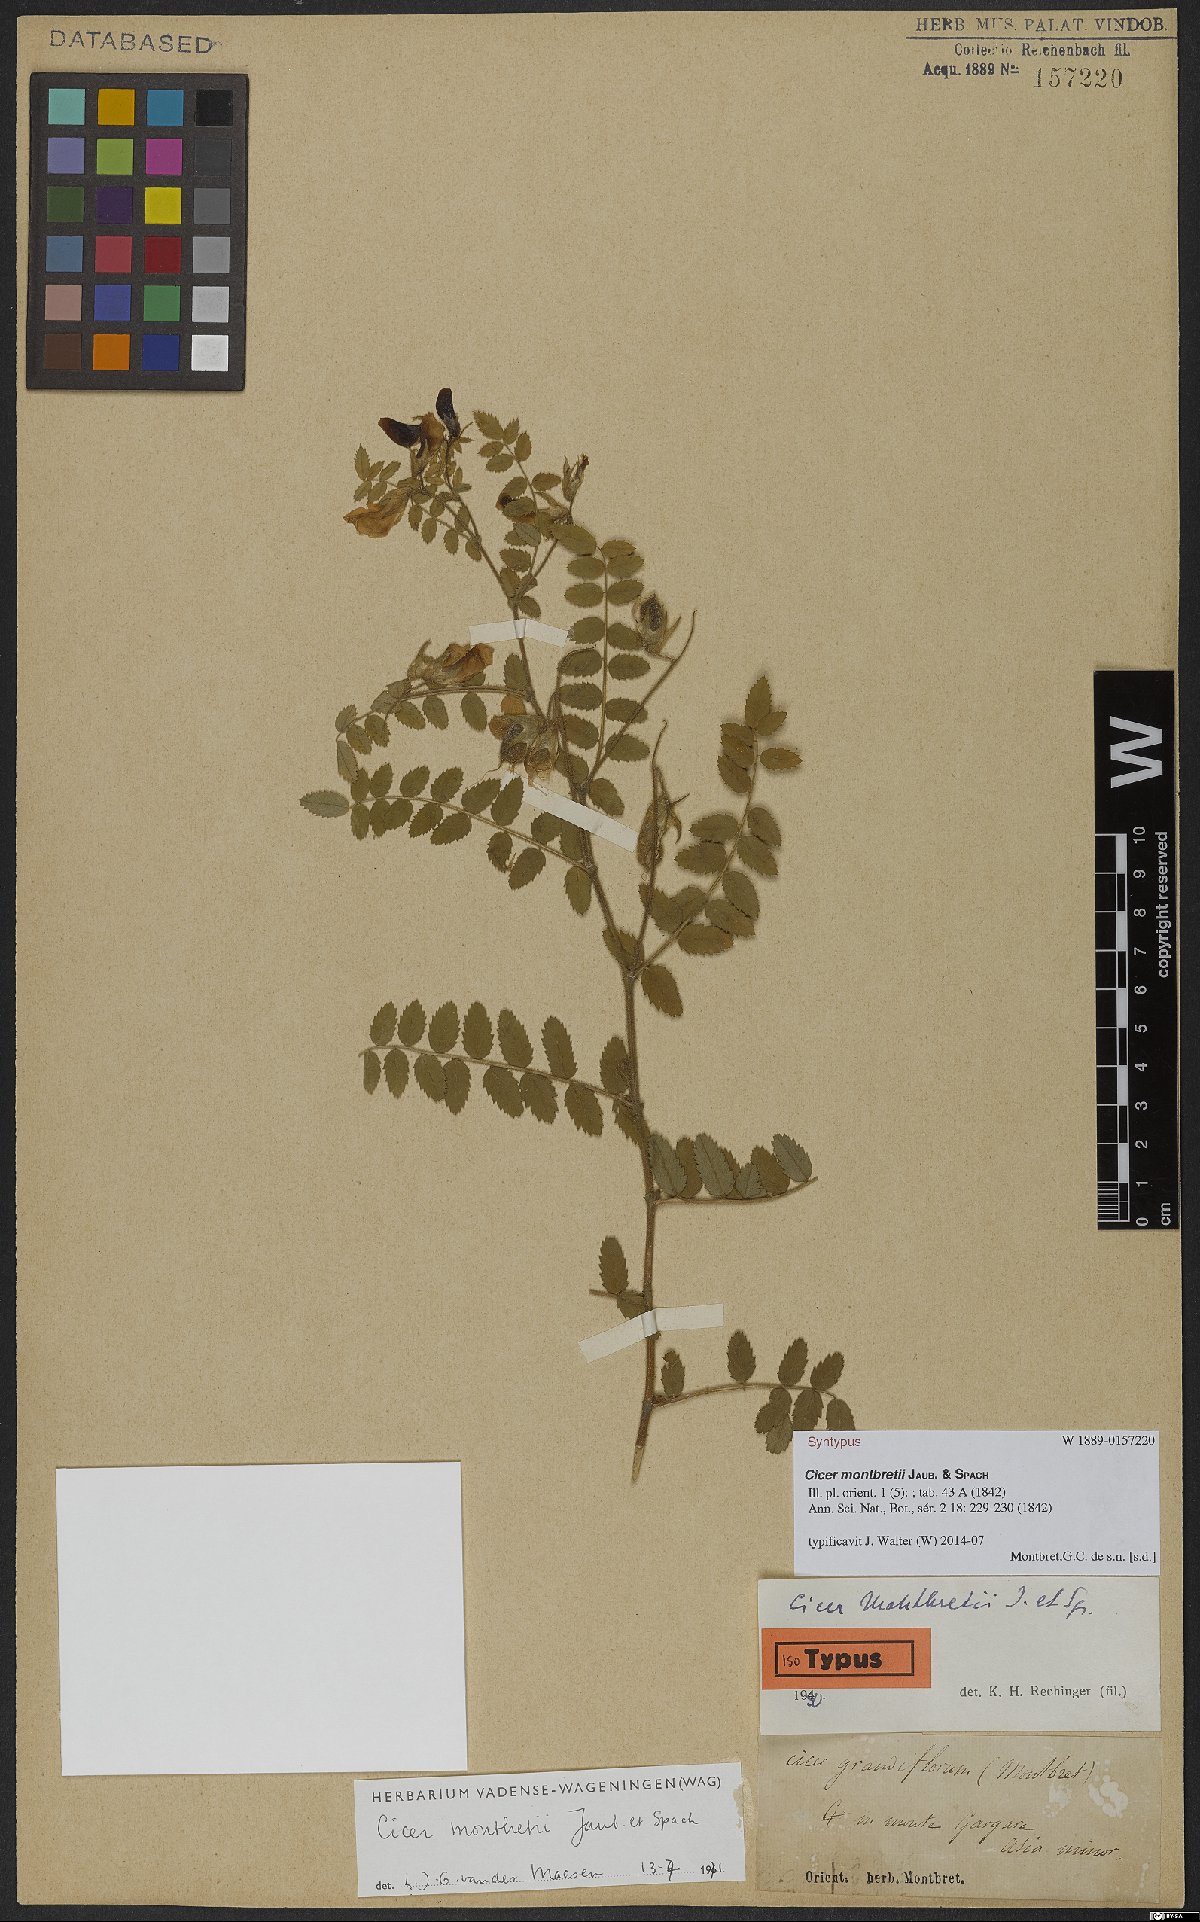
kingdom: Plantae
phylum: Tracheophyta
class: Magnoliopsida
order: Fabales
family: Fabaceae
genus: Cicer
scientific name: Cicer montbretii
